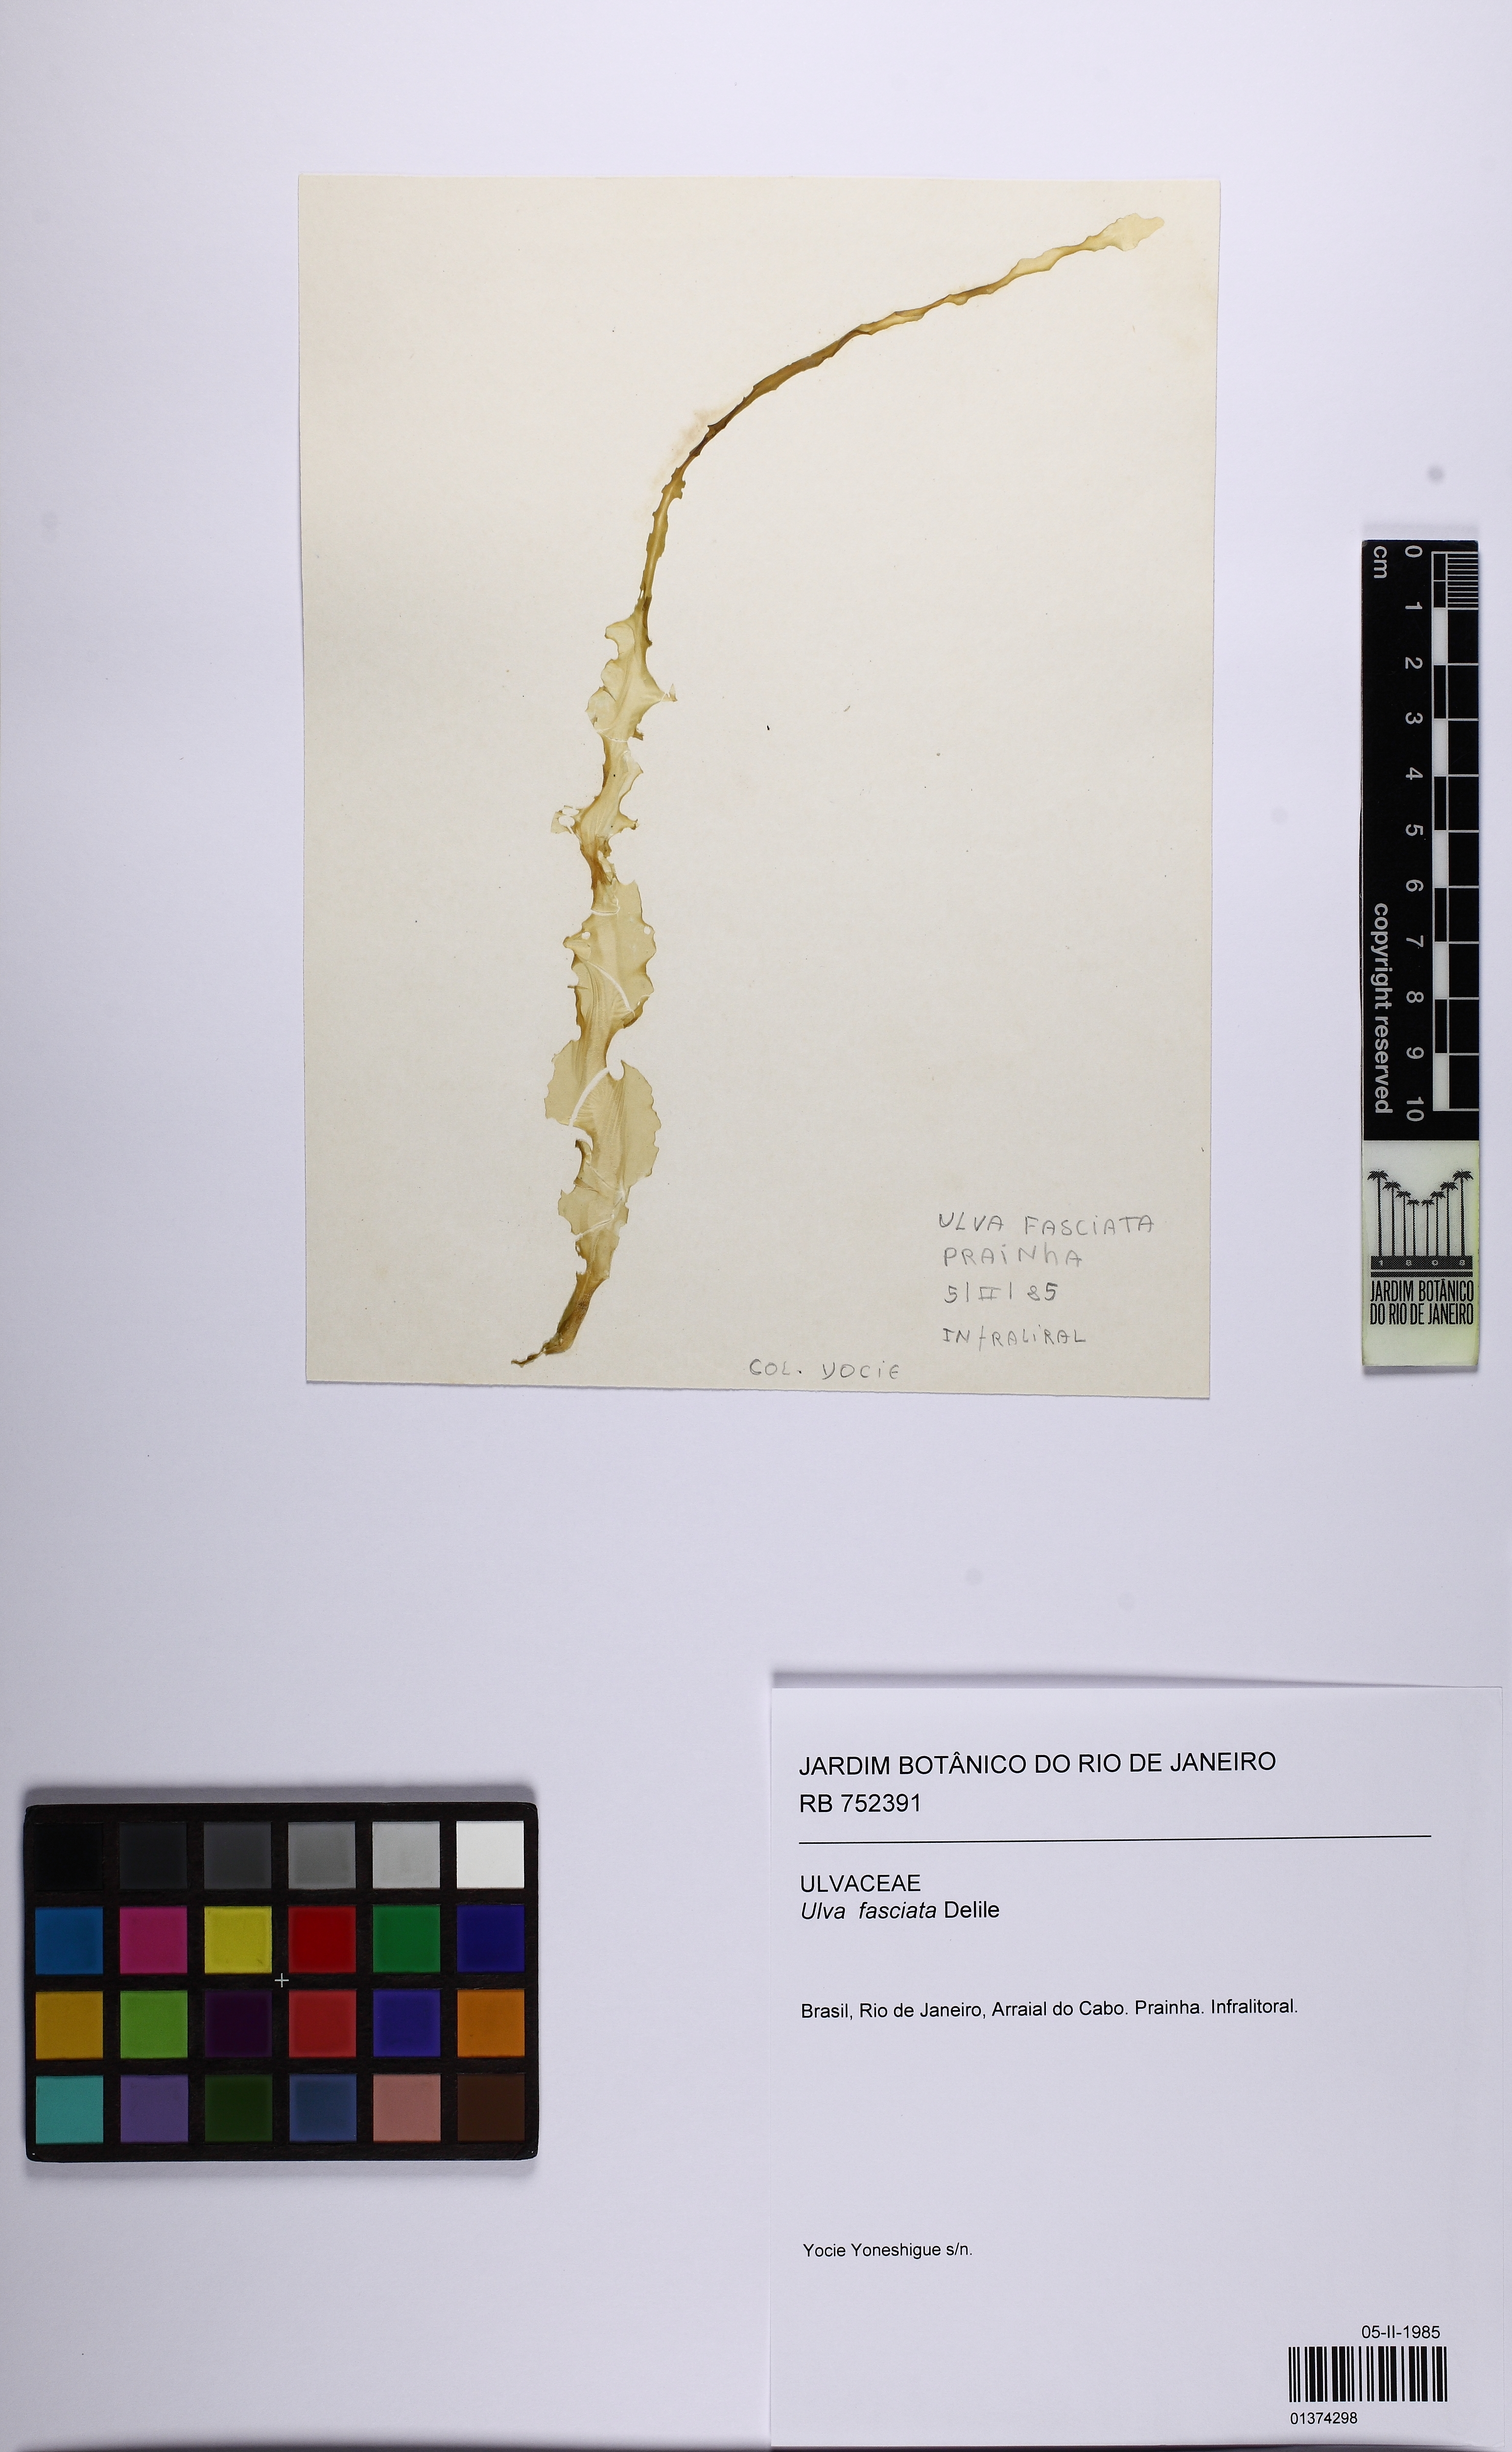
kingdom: Plantae
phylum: Chlorophyta
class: Ulvophyceae
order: Ulvales
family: Ulvaceae
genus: Ulva
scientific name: Ulva lactuca
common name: Sea lettuce
